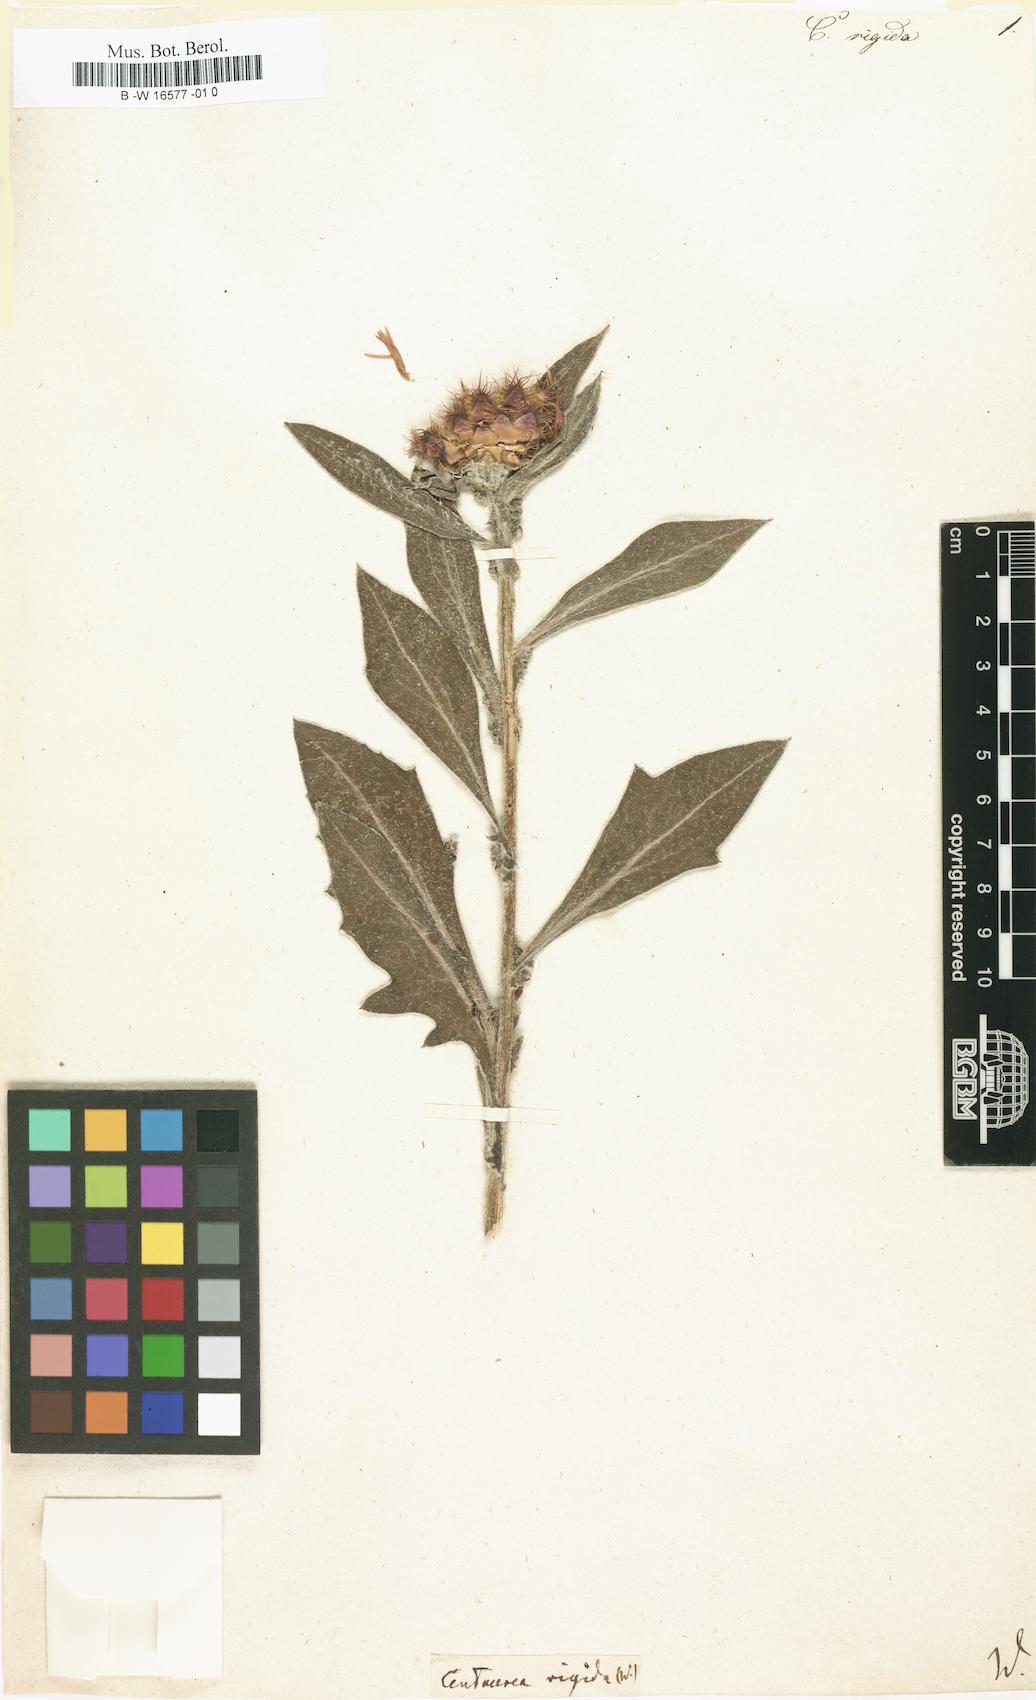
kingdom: Plantae
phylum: Tracheophyta
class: Magnoliopsida
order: Asterales
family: Asteraceae
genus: Centaurea
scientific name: Centaurea rigida
